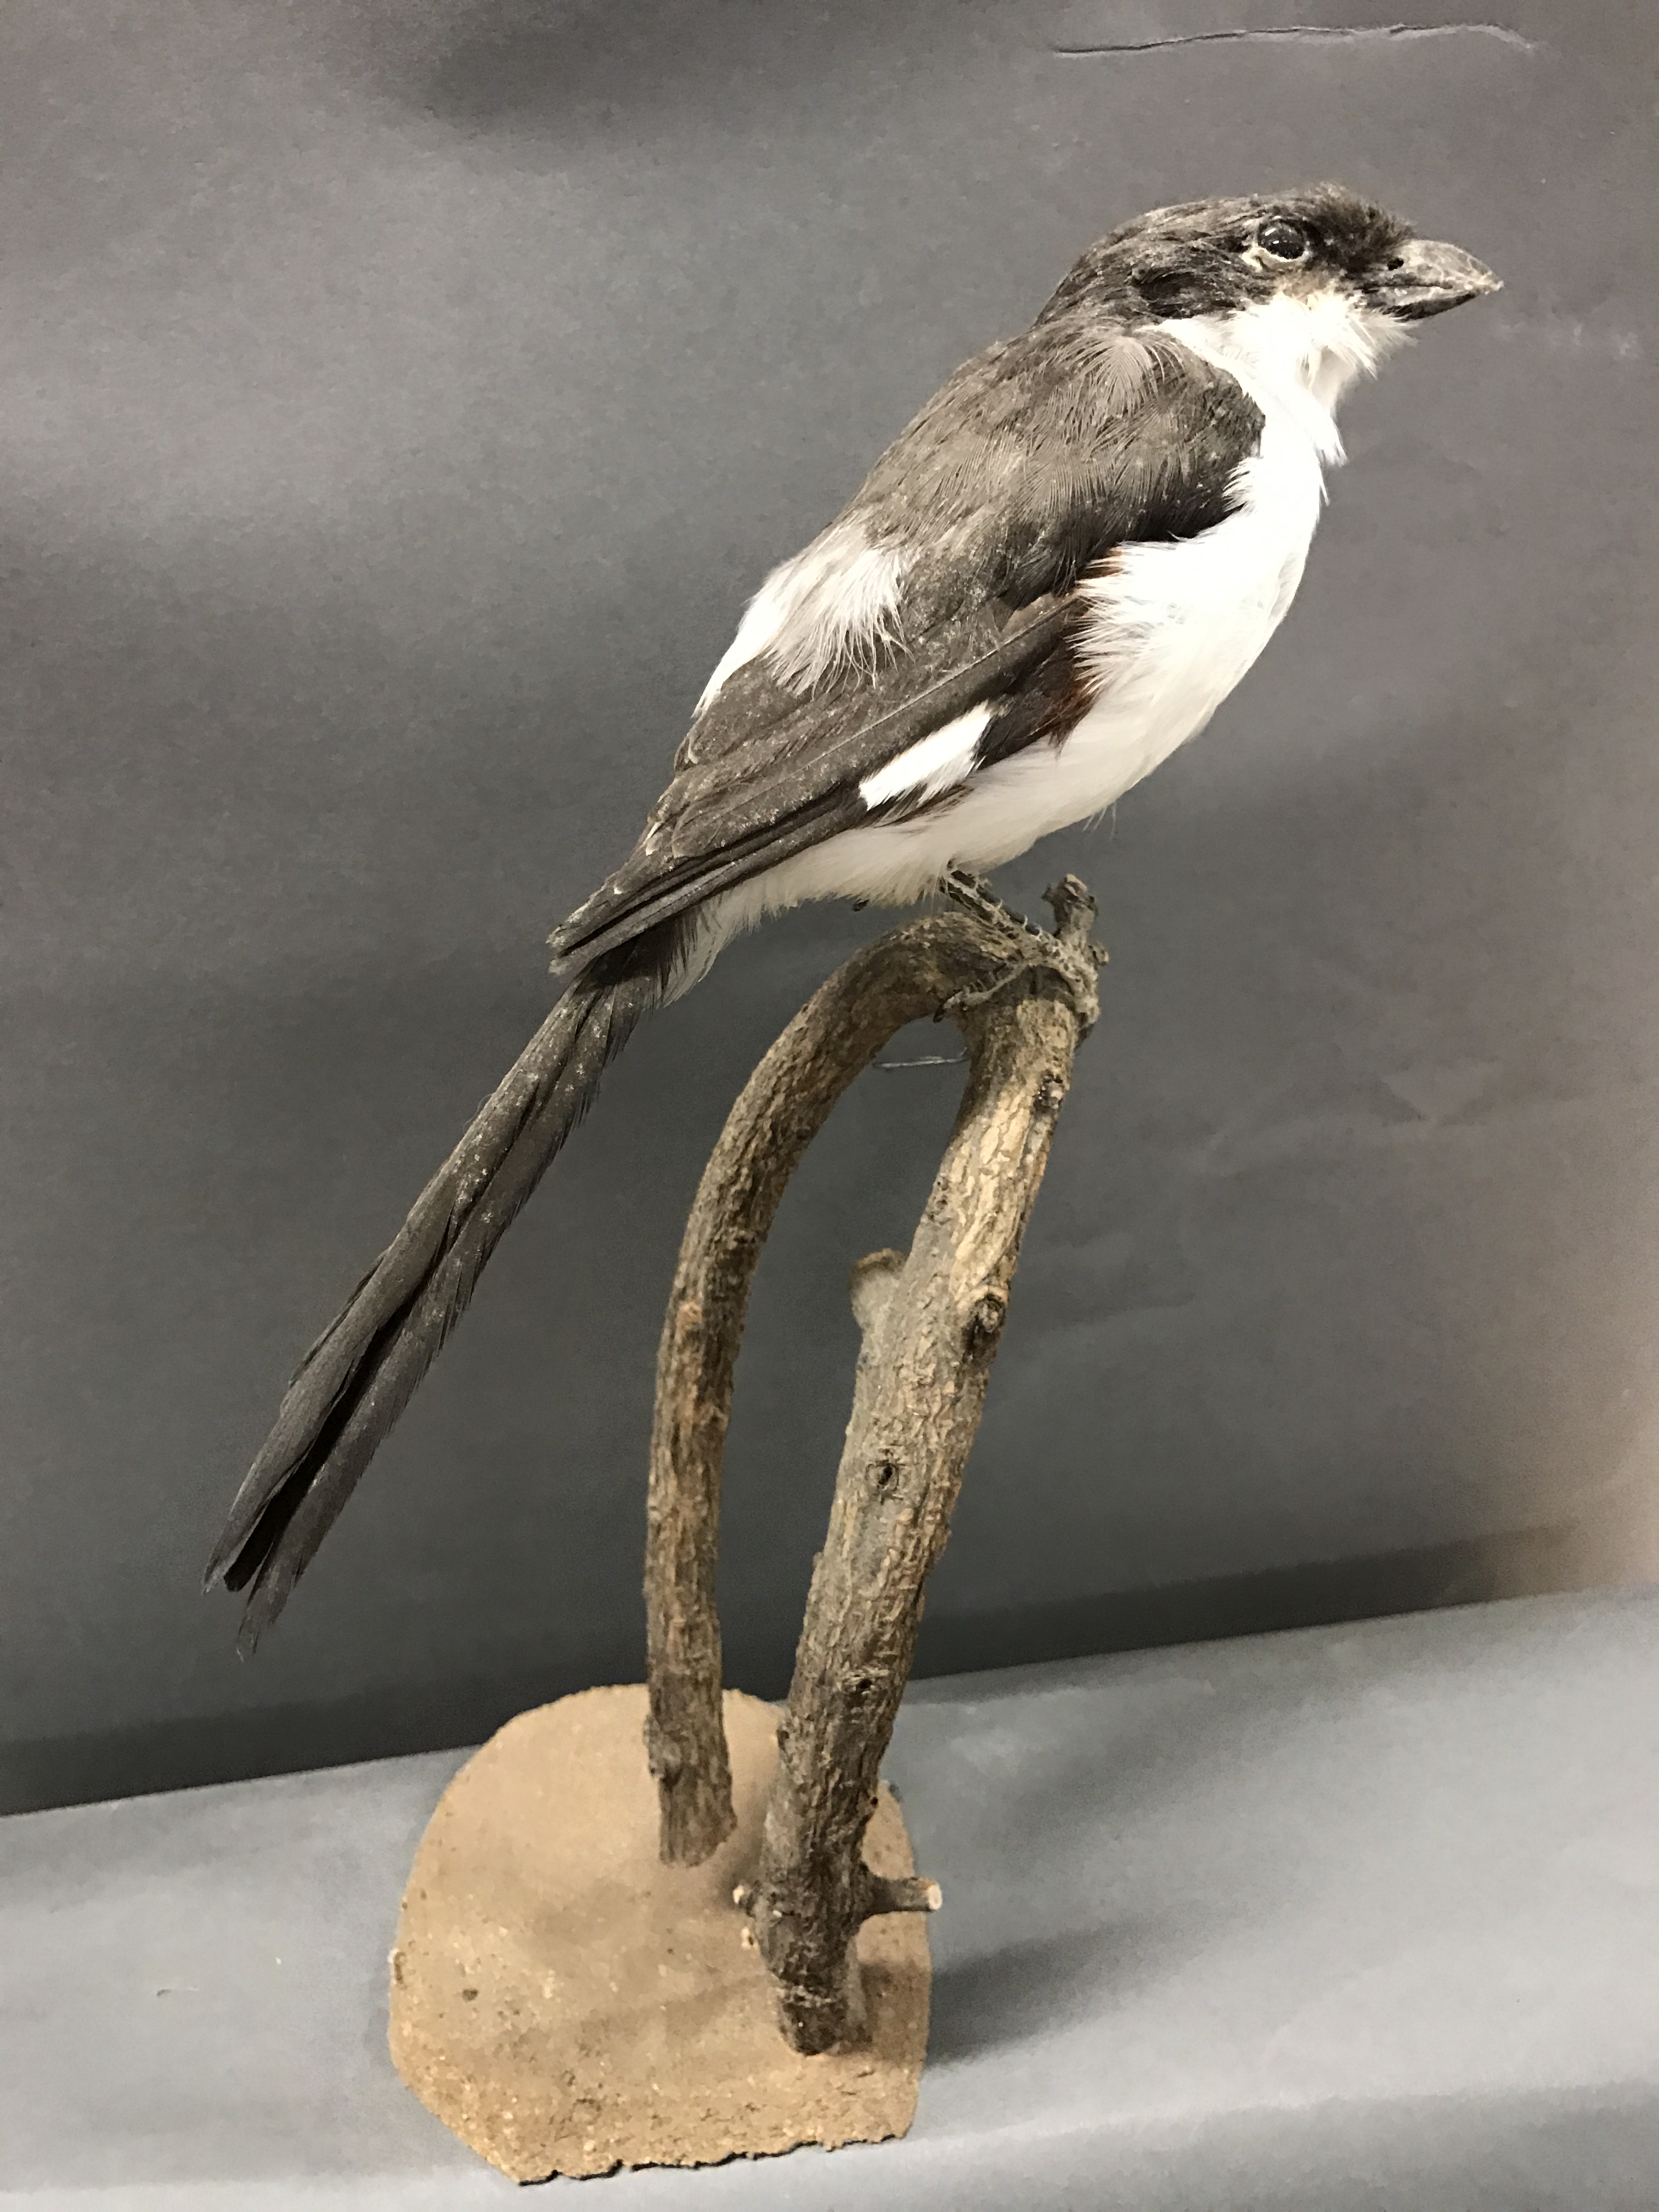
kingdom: Animalia
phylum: Chordata
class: Aves
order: Passeriformes
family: Laniidae
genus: Lanius
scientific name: Lanius cabanisi
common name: Long-tailed fiscal
